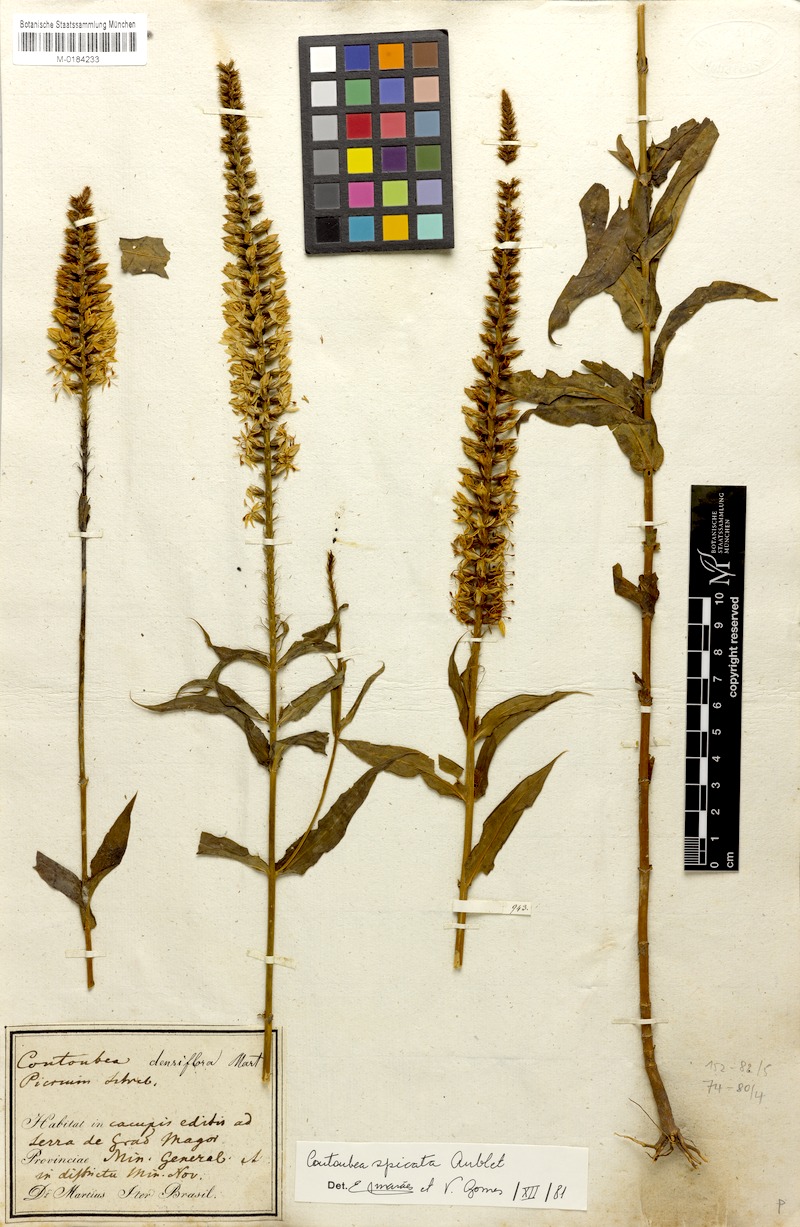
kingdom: Plantae
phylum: Tracheophyta
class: Magnoliopsida
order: Gentianales
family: Gentianaceae
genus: Coutoubea
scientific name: Coutoubea spicata
